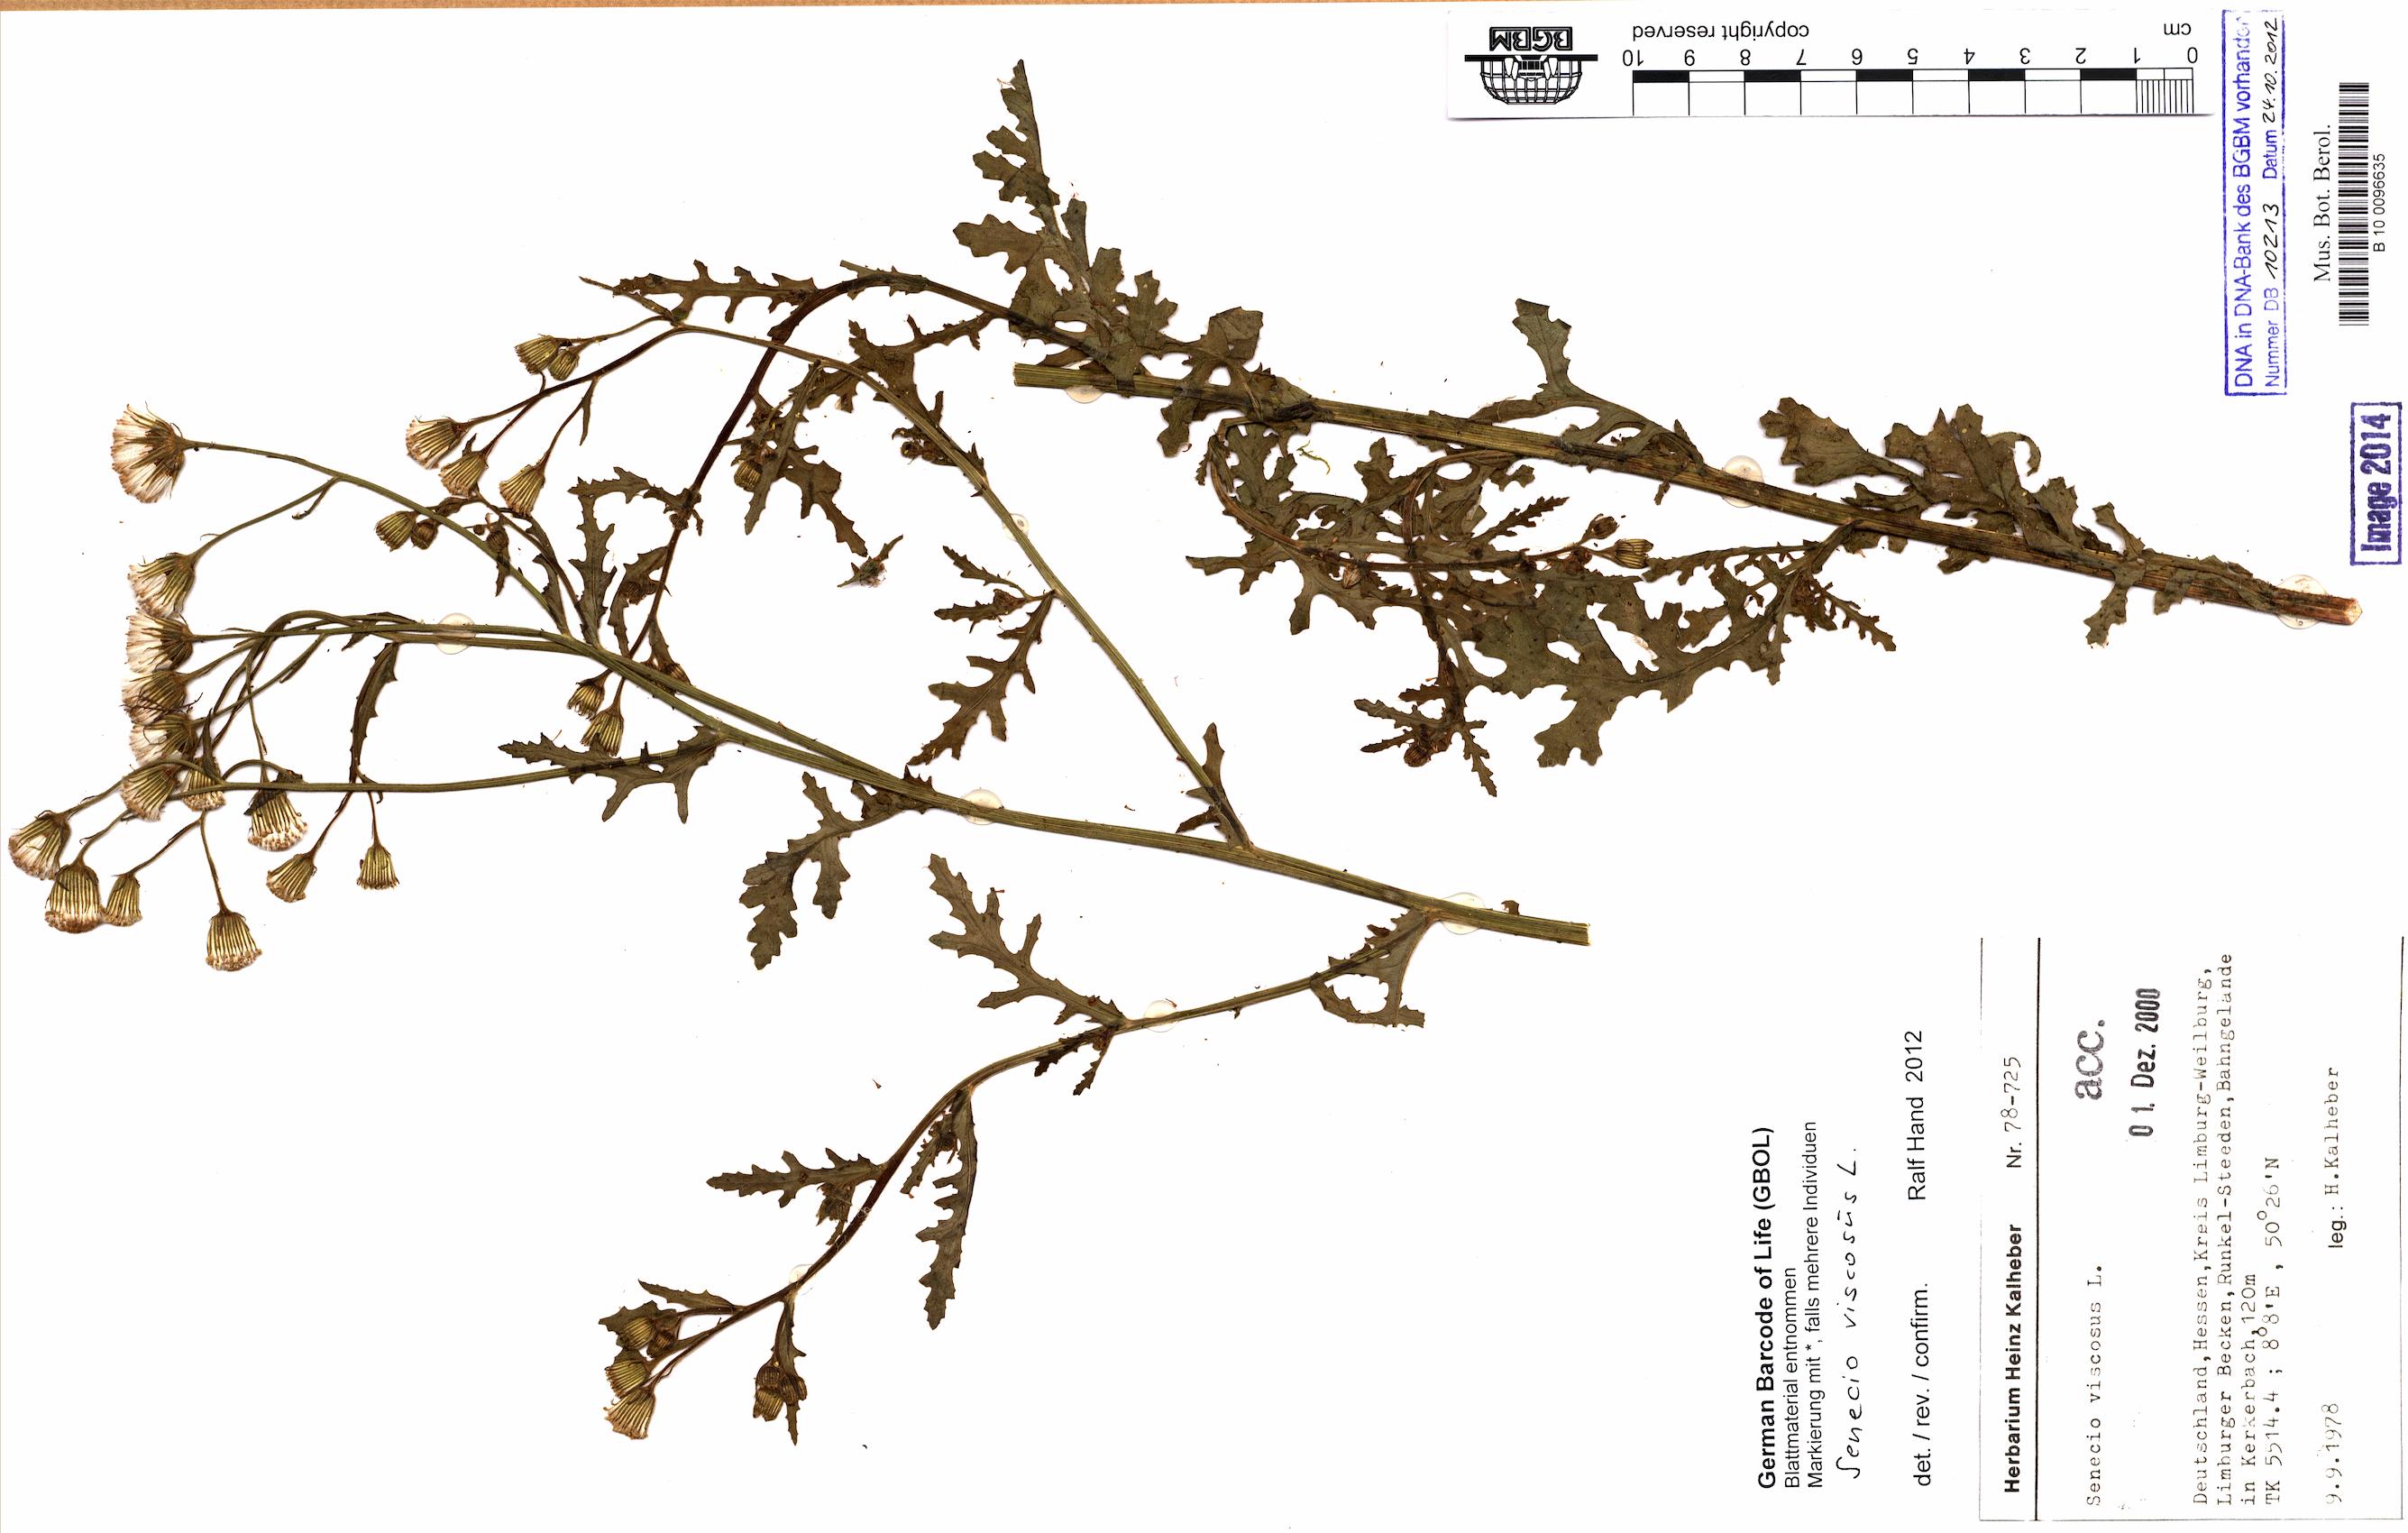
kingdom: Plantae
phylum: Tracheophyta
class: Magnoliopsida
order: Asterales
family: Asteraceae
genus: Senecio
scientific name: Senecio viscosus
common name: Sticky groundsel
